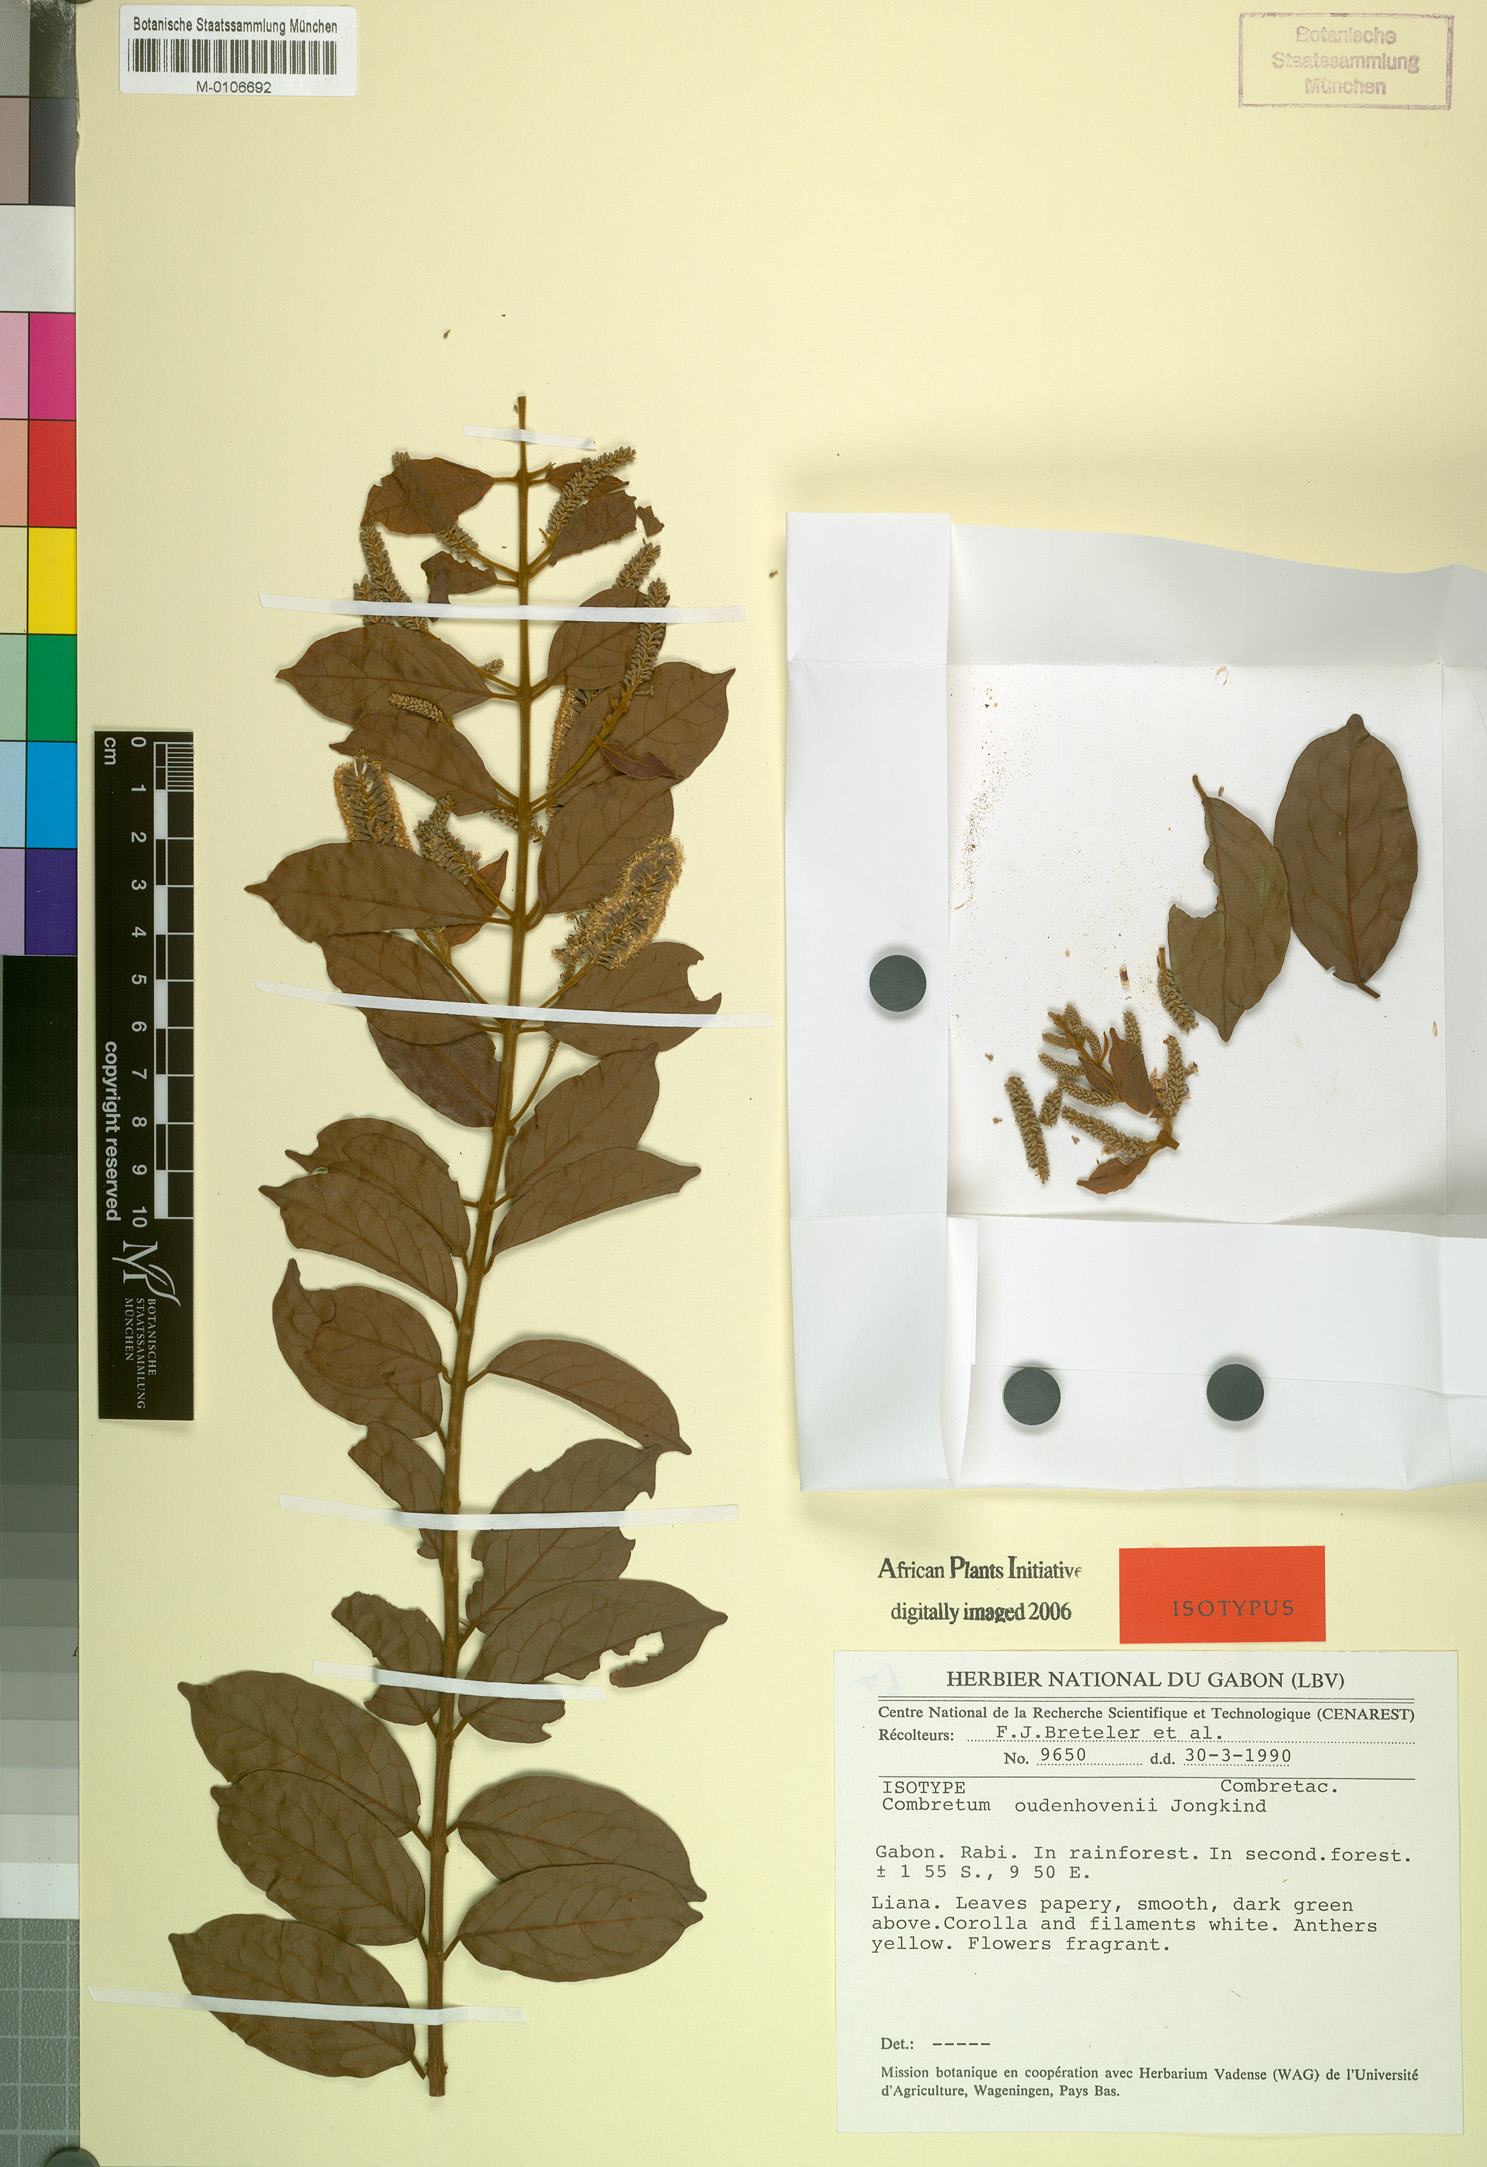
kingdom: Plantae
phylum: Tracheophyta
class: Magnoliopsida
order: Myrtales
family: Combretaceae
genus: Combretum
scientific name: Combretum oudenhovenii
